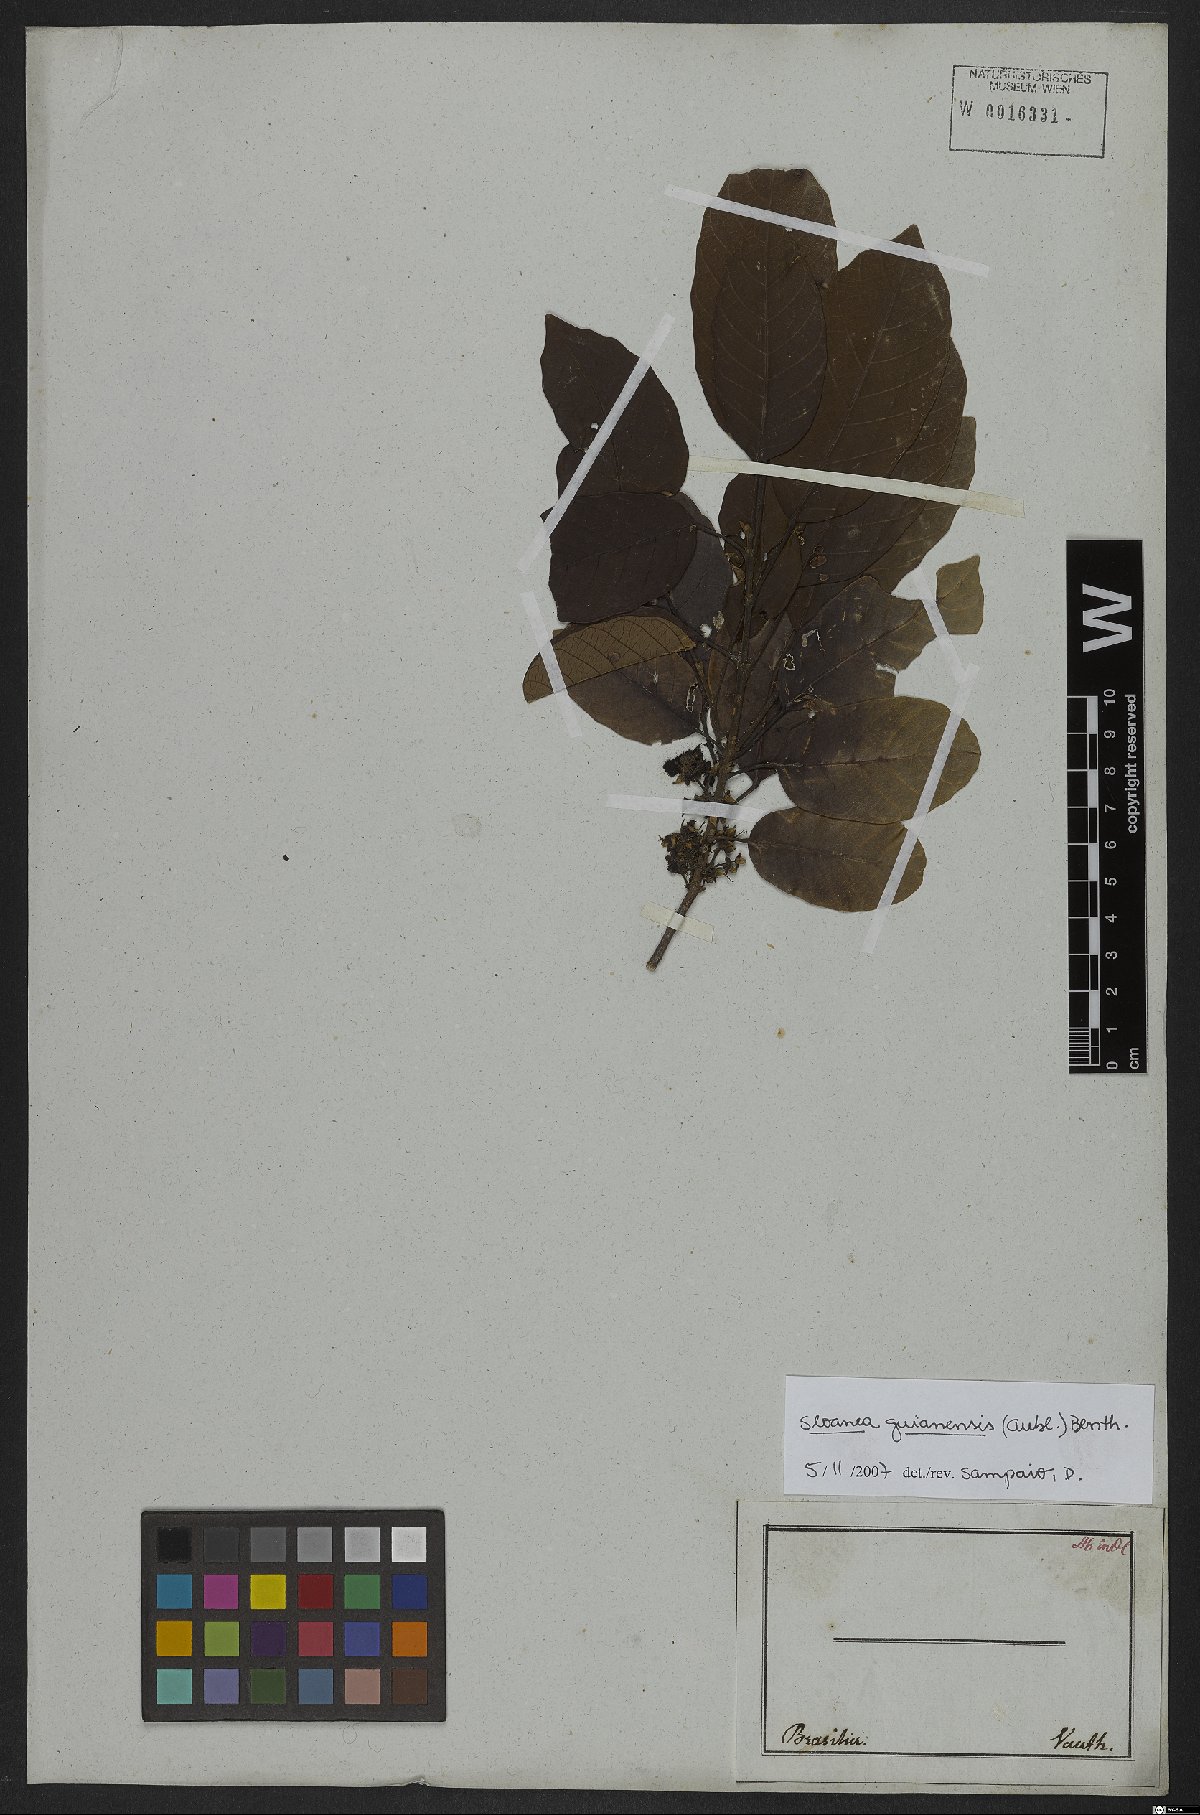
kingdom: Plantae
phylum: Tracheophyta
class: Magnoliopsida
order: Oxalidales
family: Elaeocarpaceae
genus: Sloanea
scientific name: Sloanea guianensis
